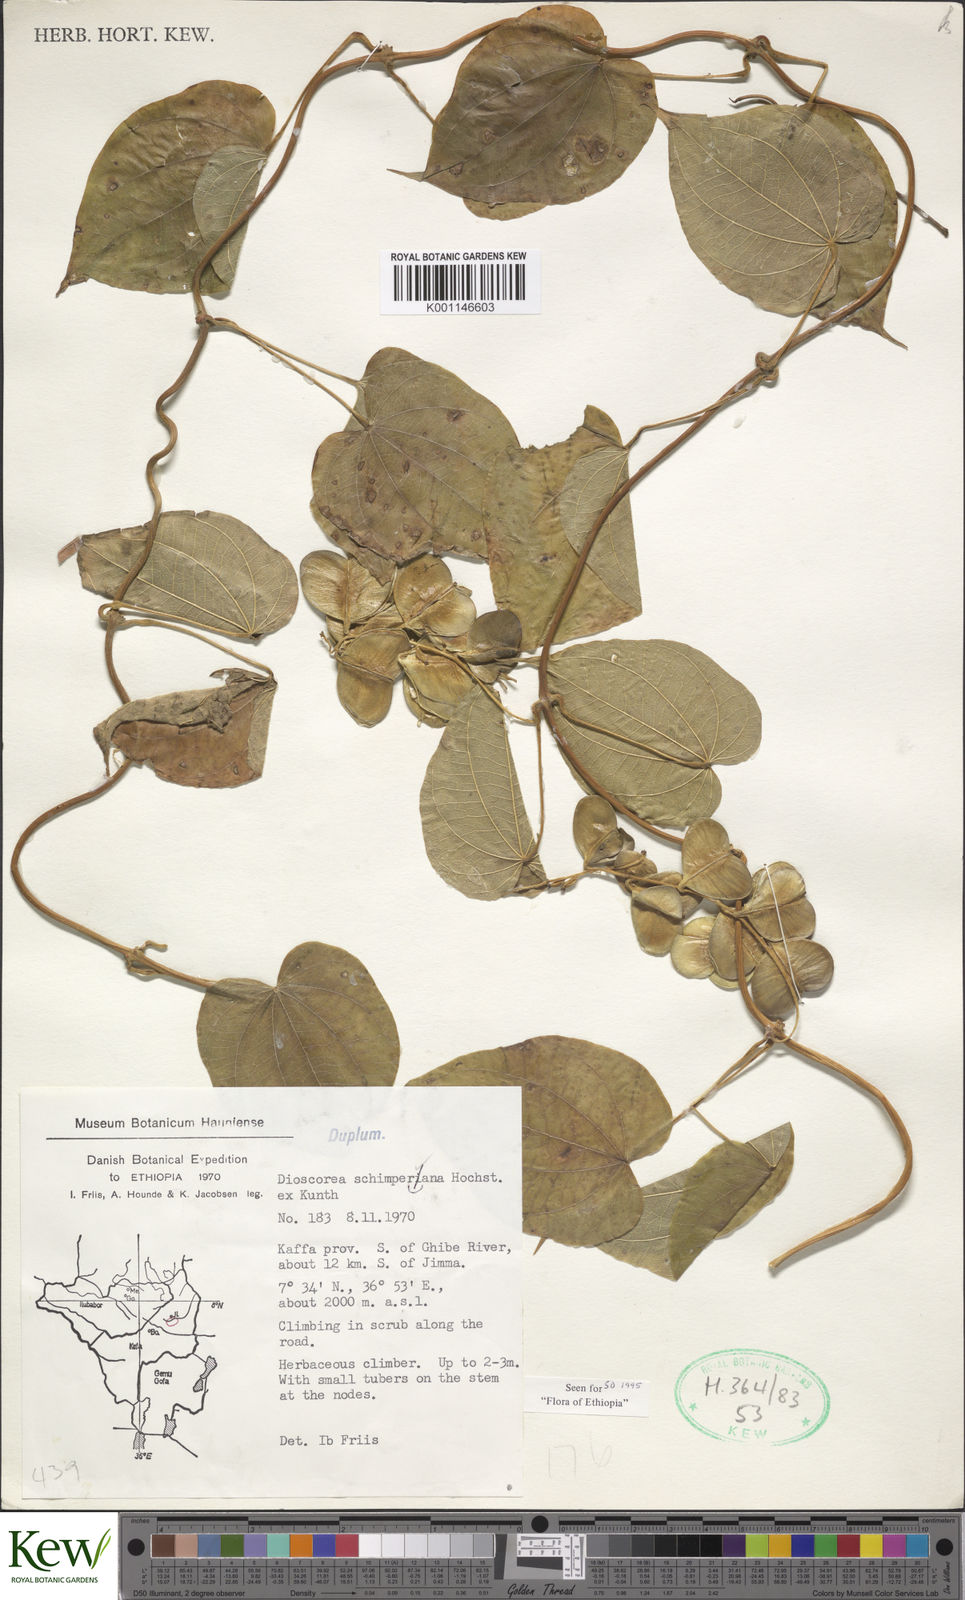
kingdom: Plantae
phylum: Tracheophyta
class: Liliopsida
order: Dioscoreales
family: Dioscoreaceae
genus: Dioscorea
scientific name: Dioscorea schimperiana
